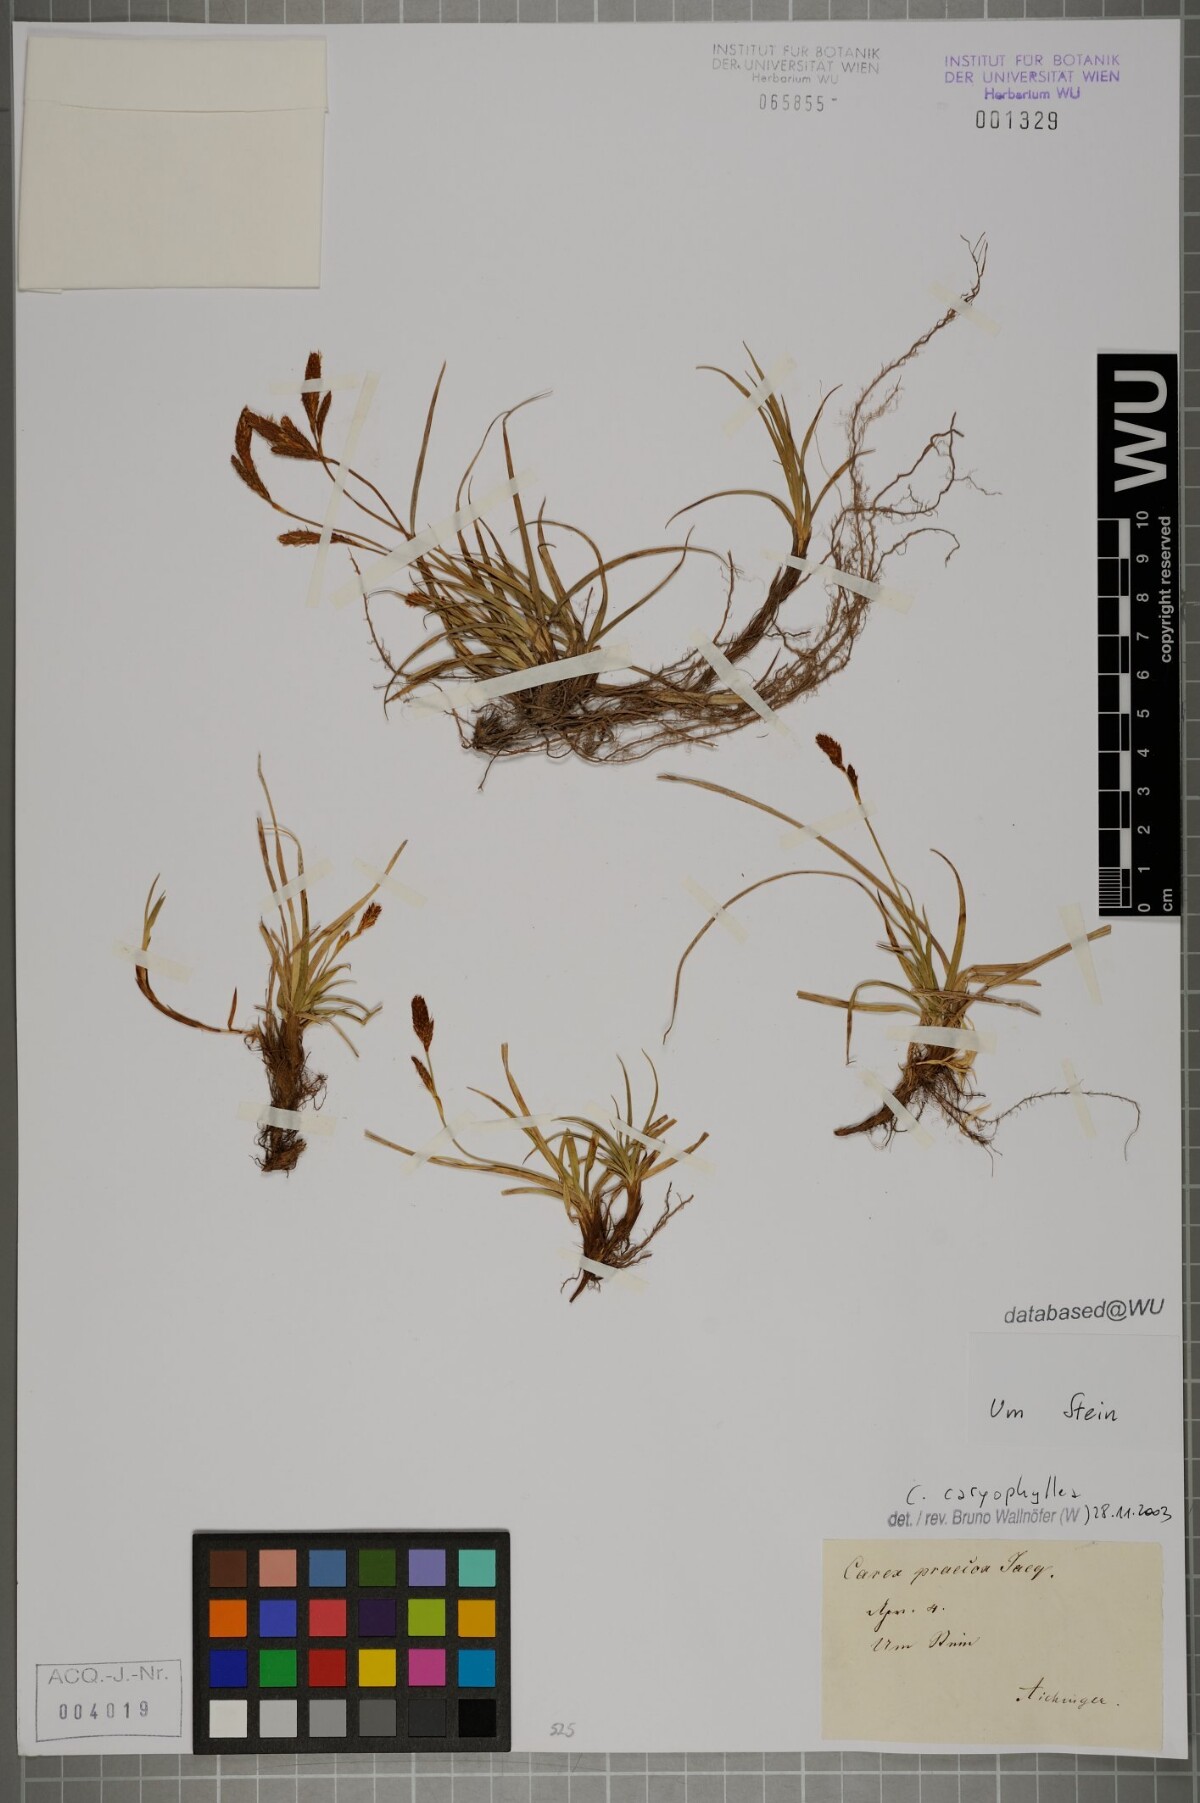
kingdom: Plantae
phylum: Tracheophyta
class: Liliopsida
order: Poales
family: Cyperaceae
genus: Carex
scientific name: Carex caryophyllea
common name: Spring sedge
